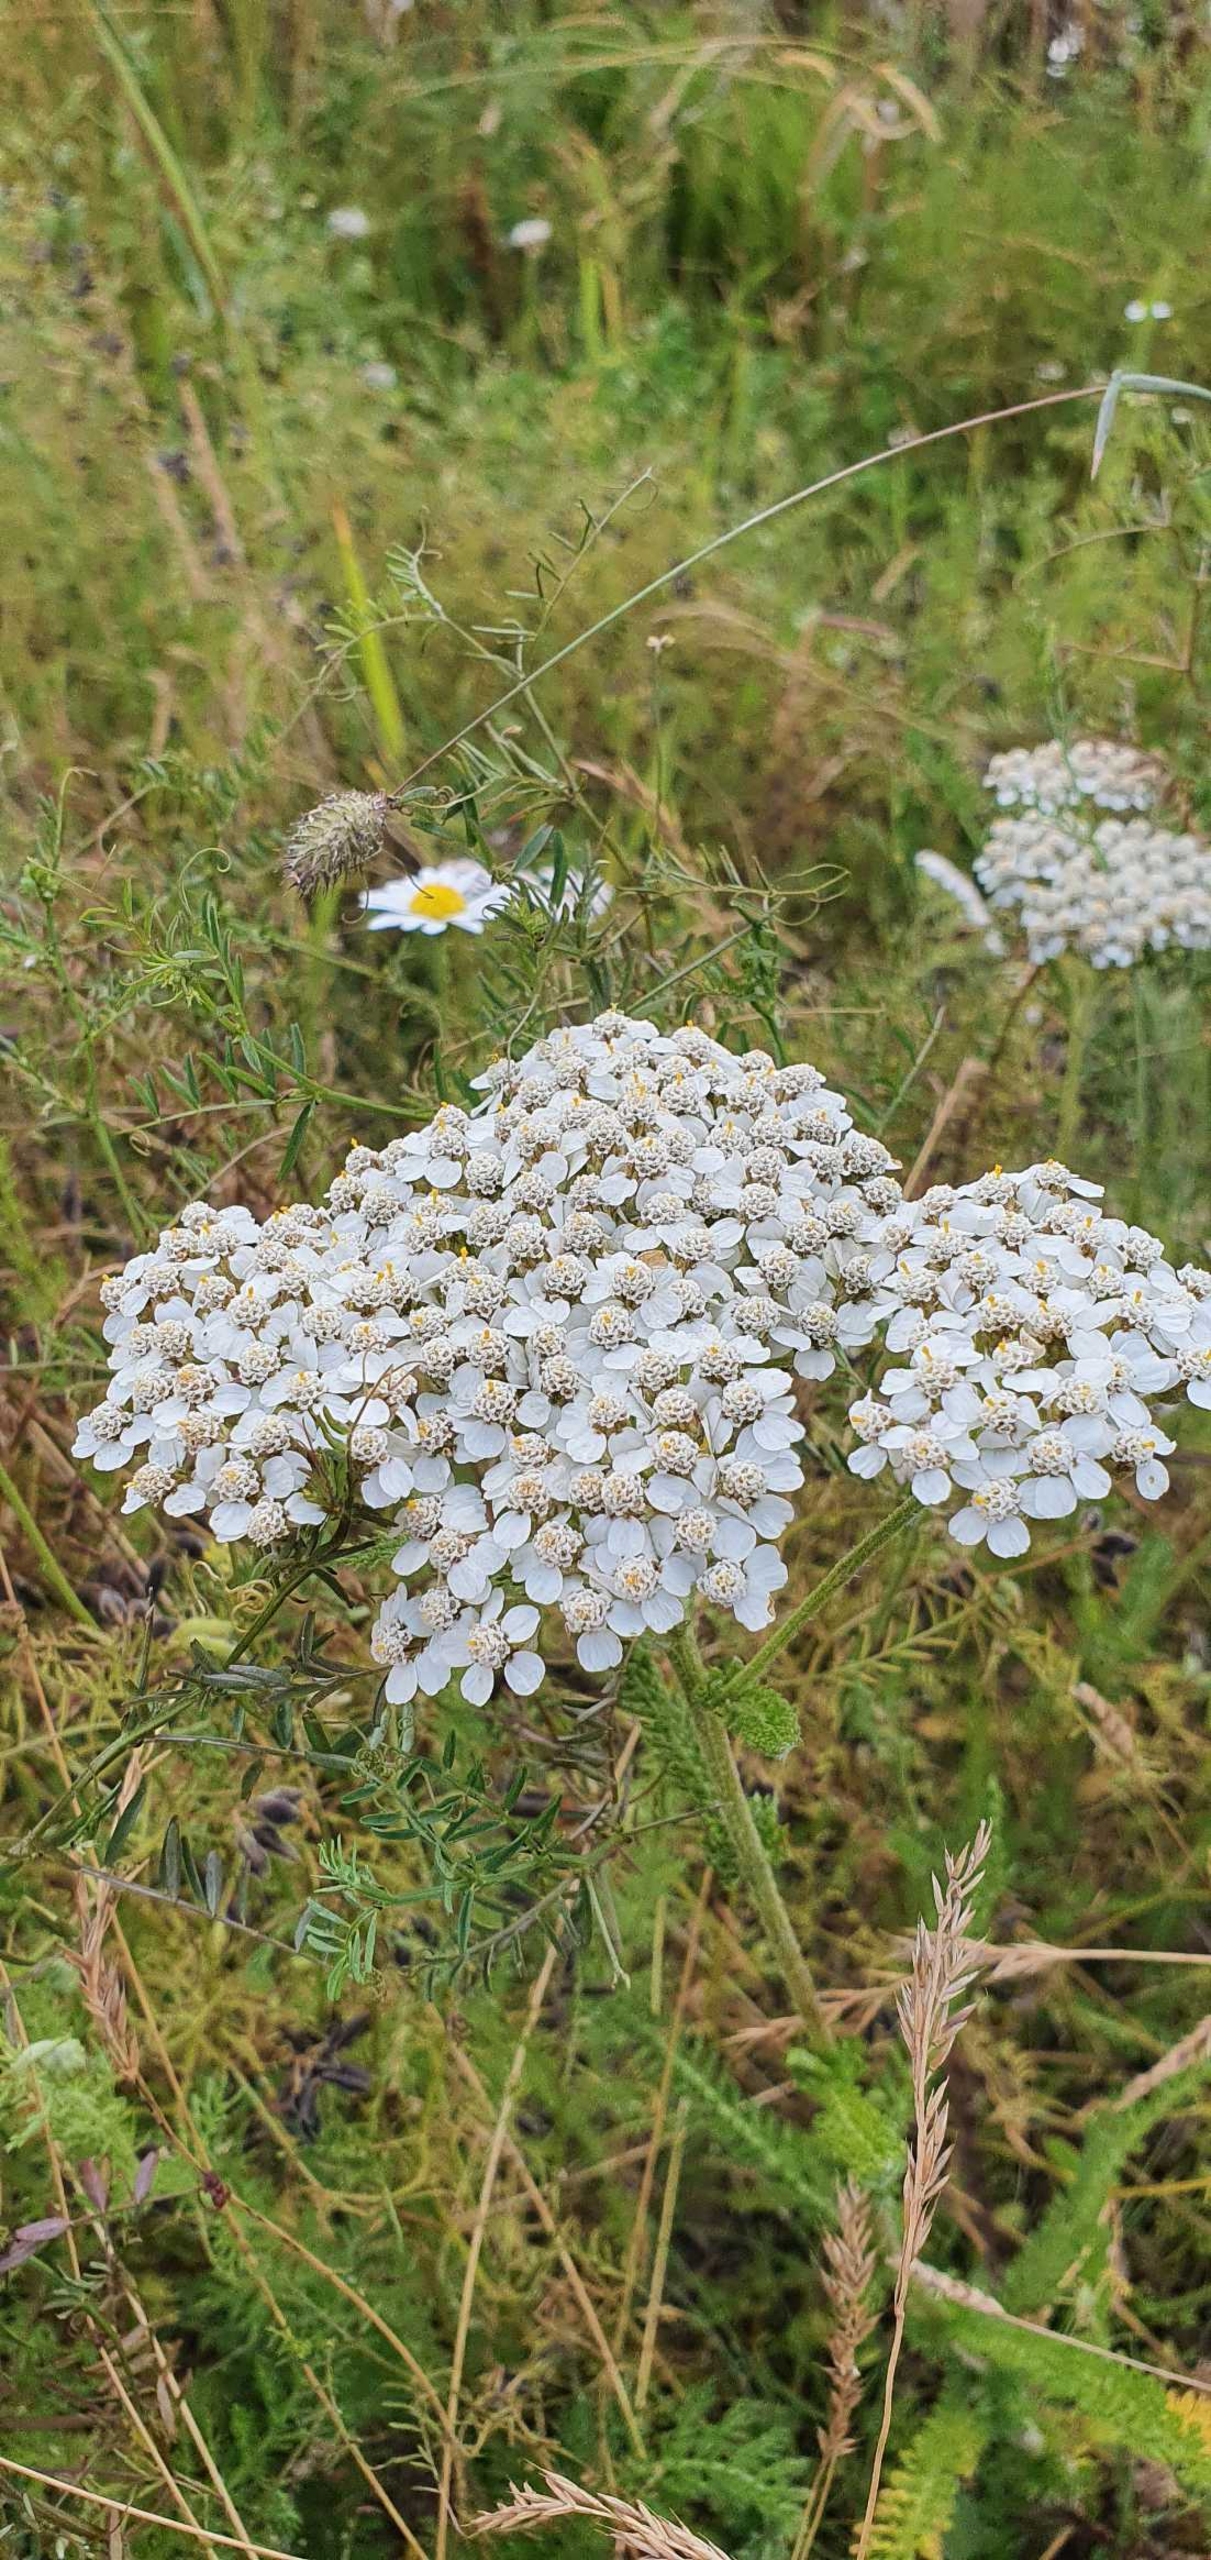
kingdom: Plantae
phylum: Tracheophyta
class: Magnoliopsida
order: Asterales
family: Asteraceae
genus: Achillea
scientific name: Achillea millefolium
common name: Almindelig røllike
